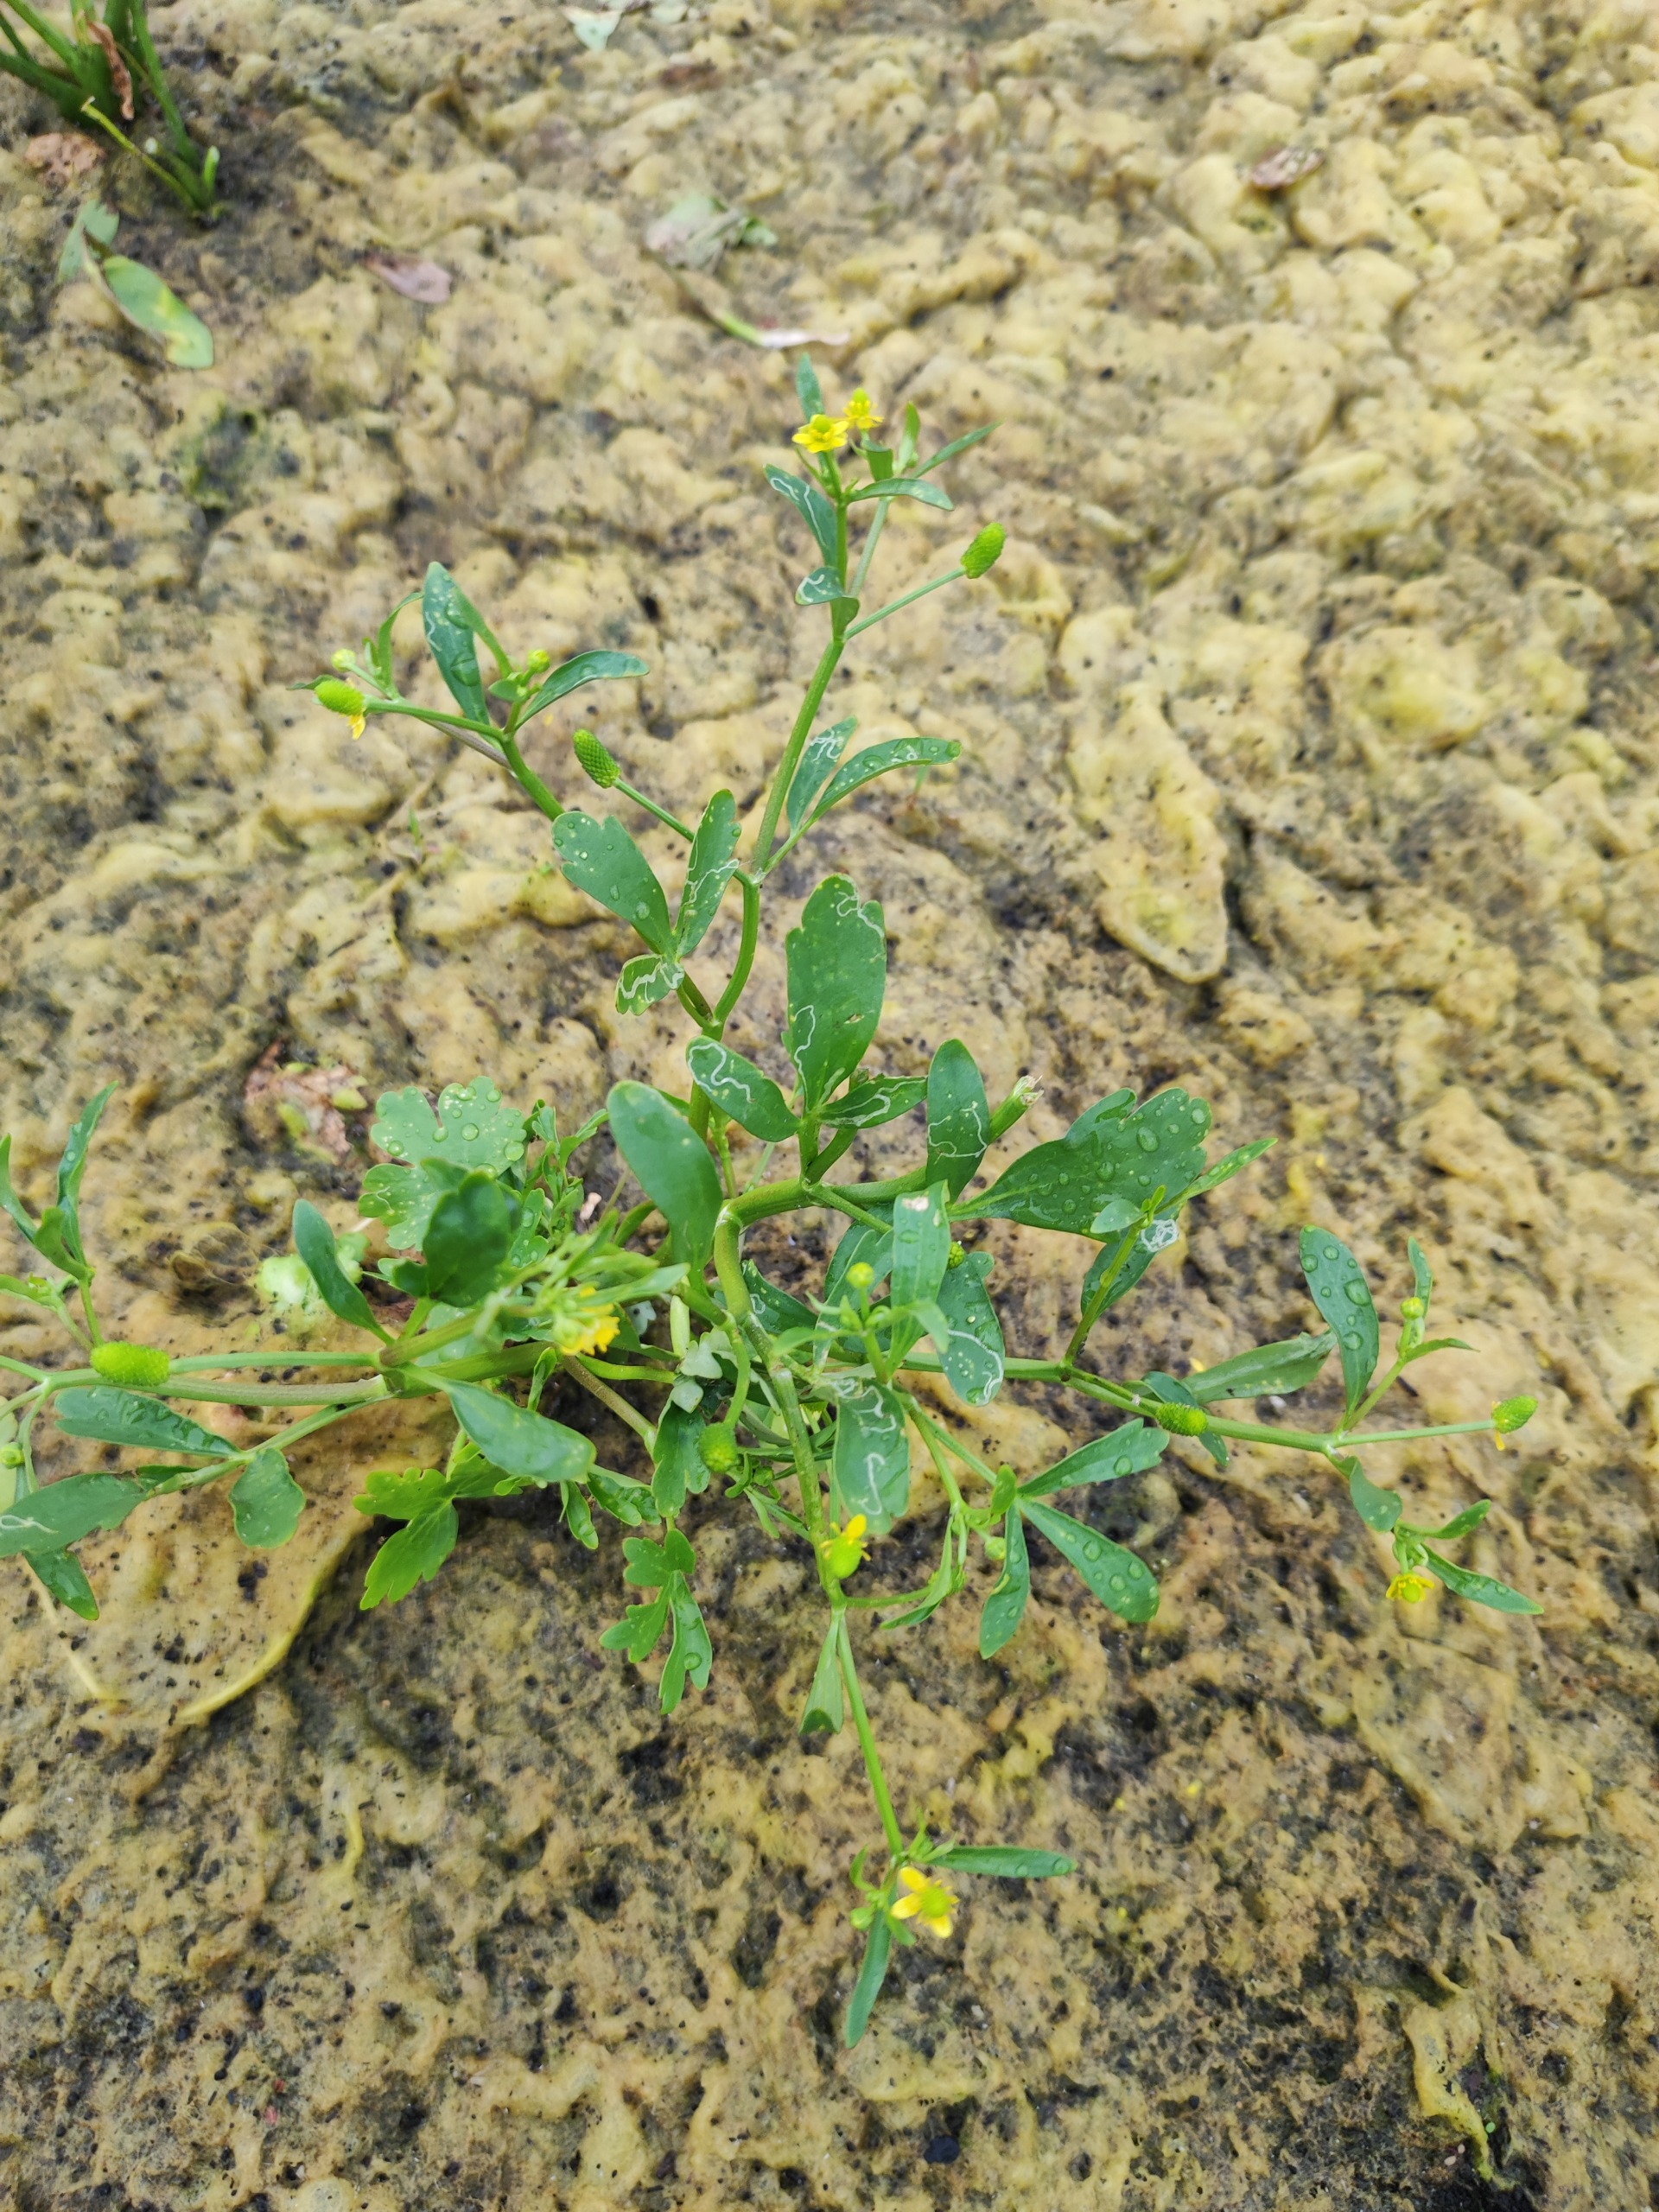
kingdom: Plantae
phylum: Tracheophyta
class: Magnoliopsida
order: Ranunculales
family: Ranunculaceae
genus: Ranunculus
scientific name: Ranunculus sceleratus
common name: Tigger-ranunkel
